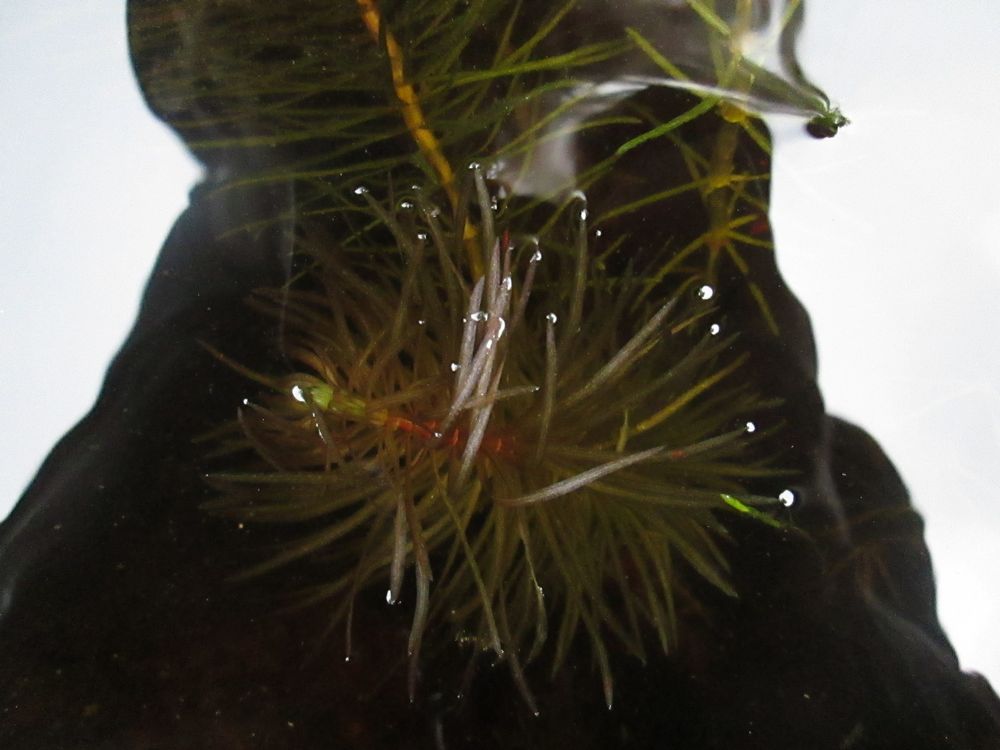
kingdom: Plantae
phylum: Tracheophyta
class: Magnoliopsida
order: Lamiales
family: Plantaginaceae
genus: Hippuris
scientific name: Hippuris vulgaris
